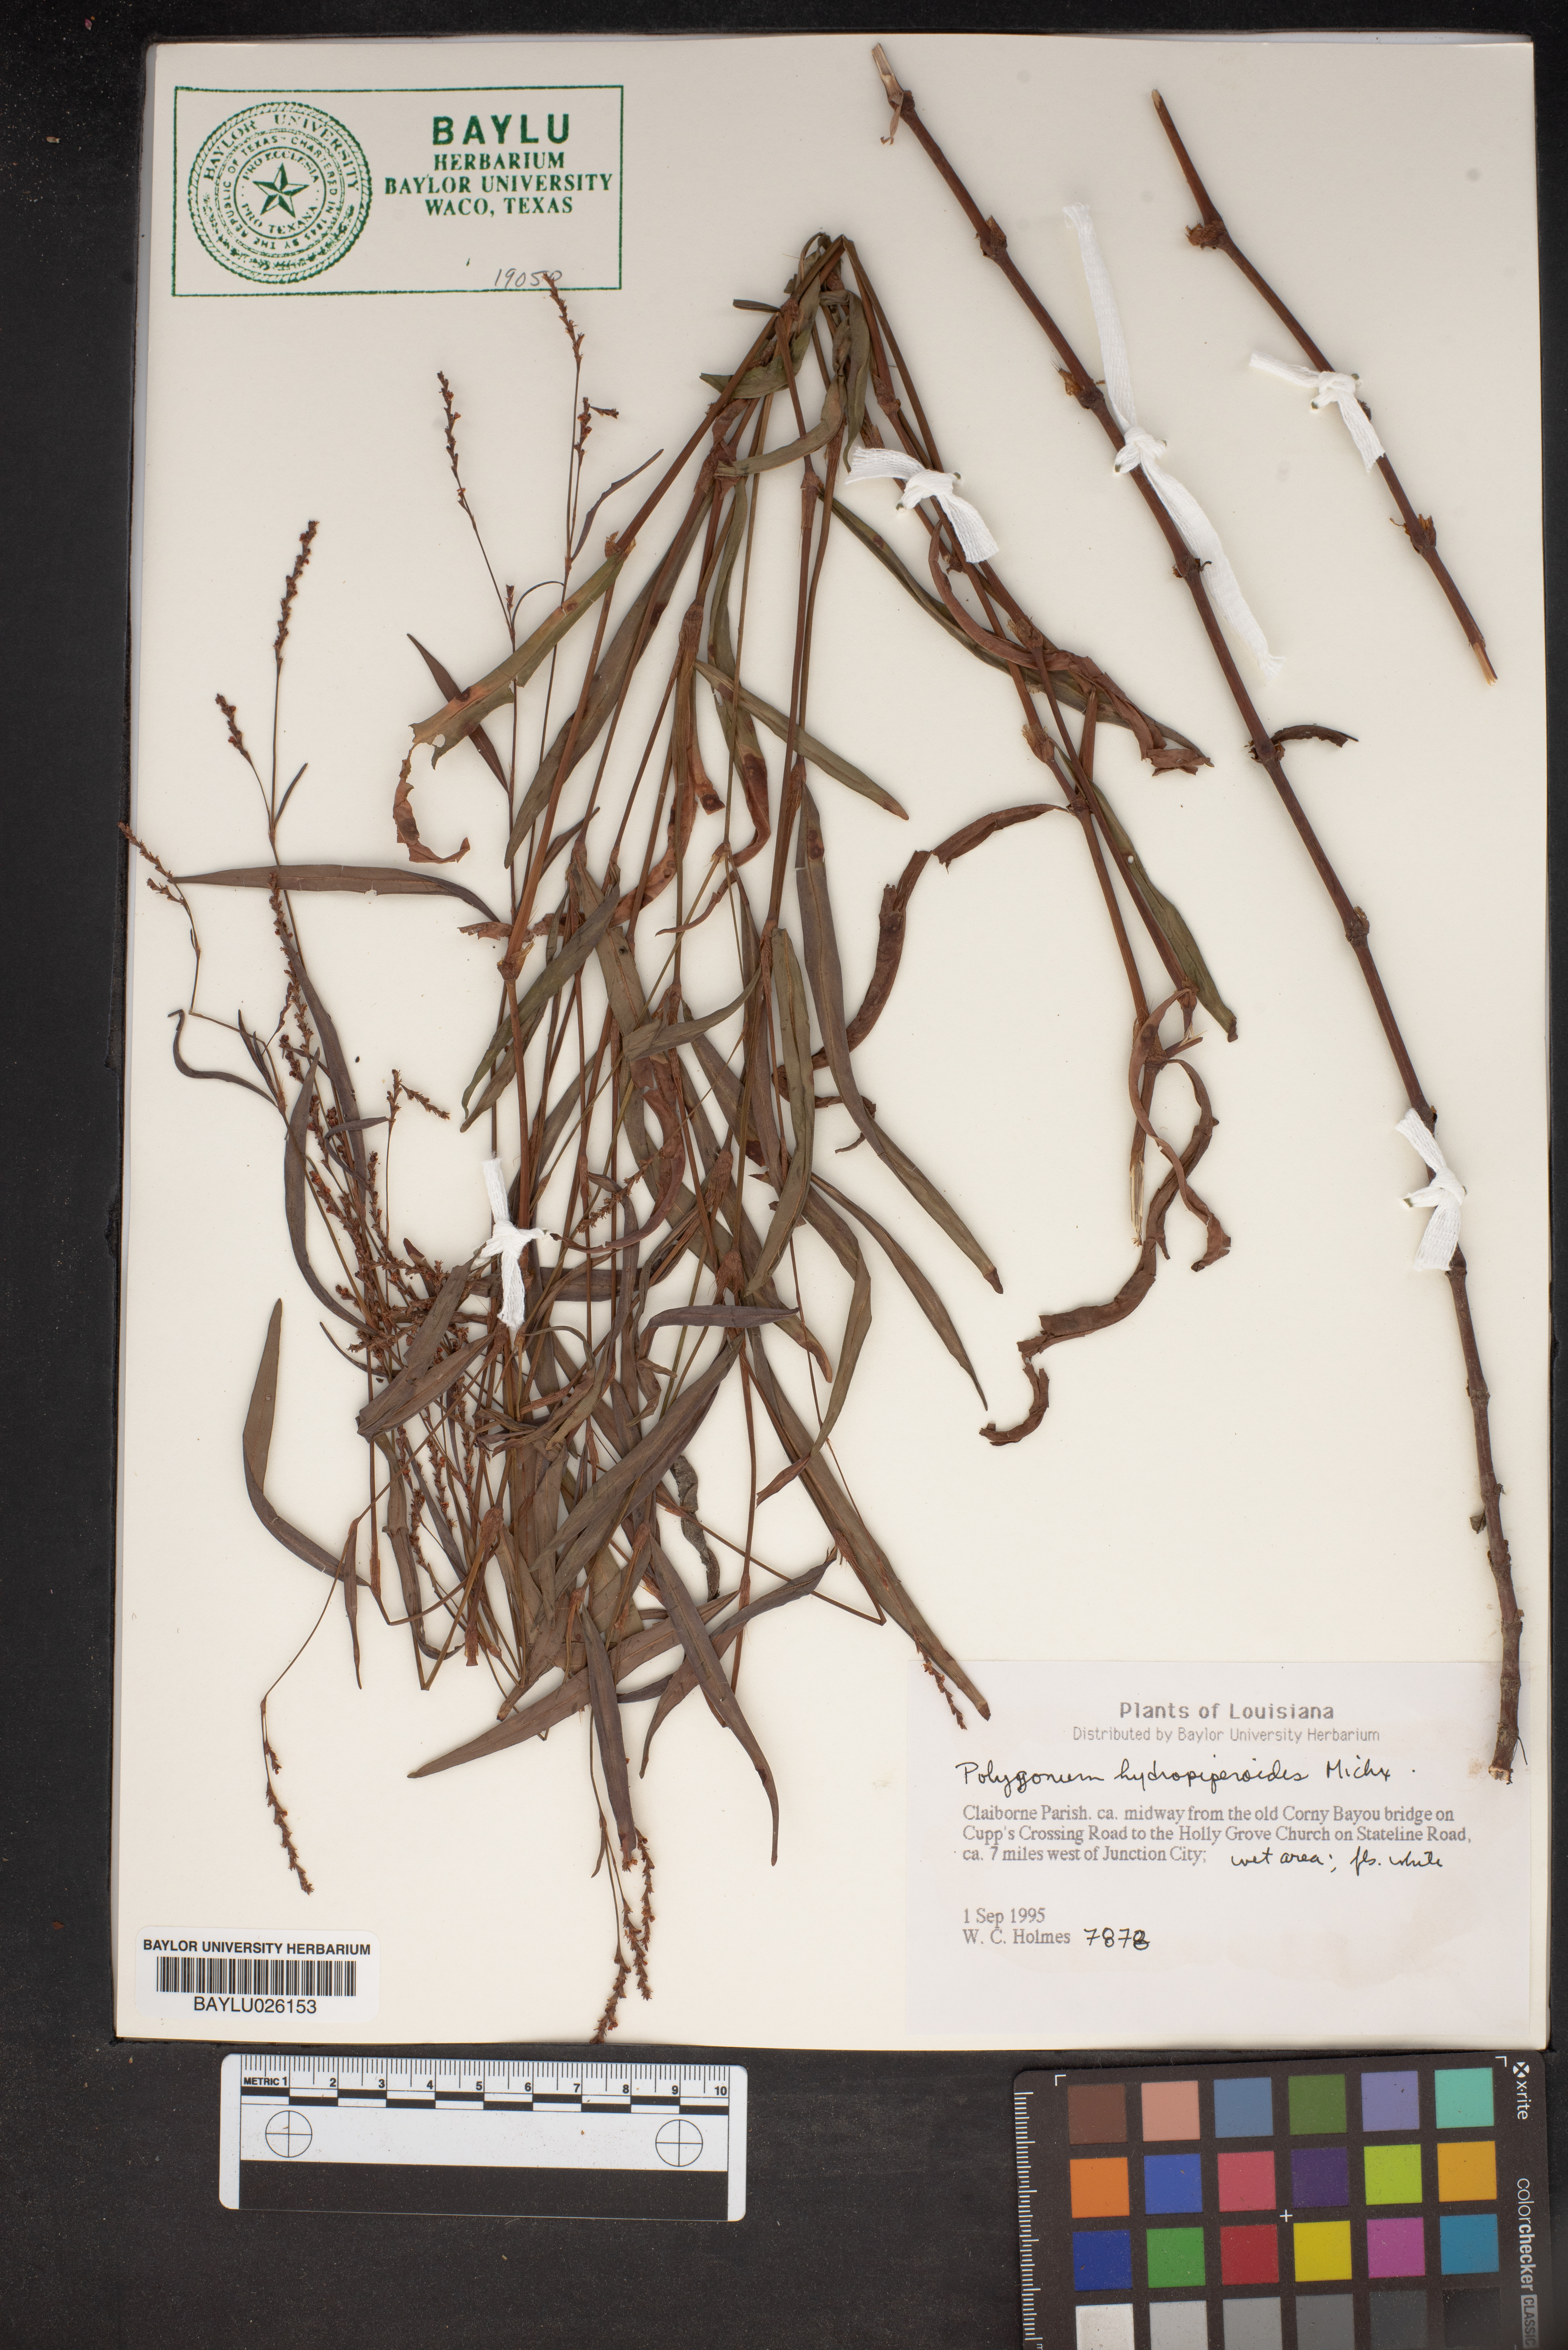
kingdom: Plantae
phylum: Tracheophyta
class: Magnoliopsida
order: Caryophyllales
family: Polygonaceae
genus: Persicaria
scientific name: Persicaria hydropiperoides
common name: Swamp smartweed
